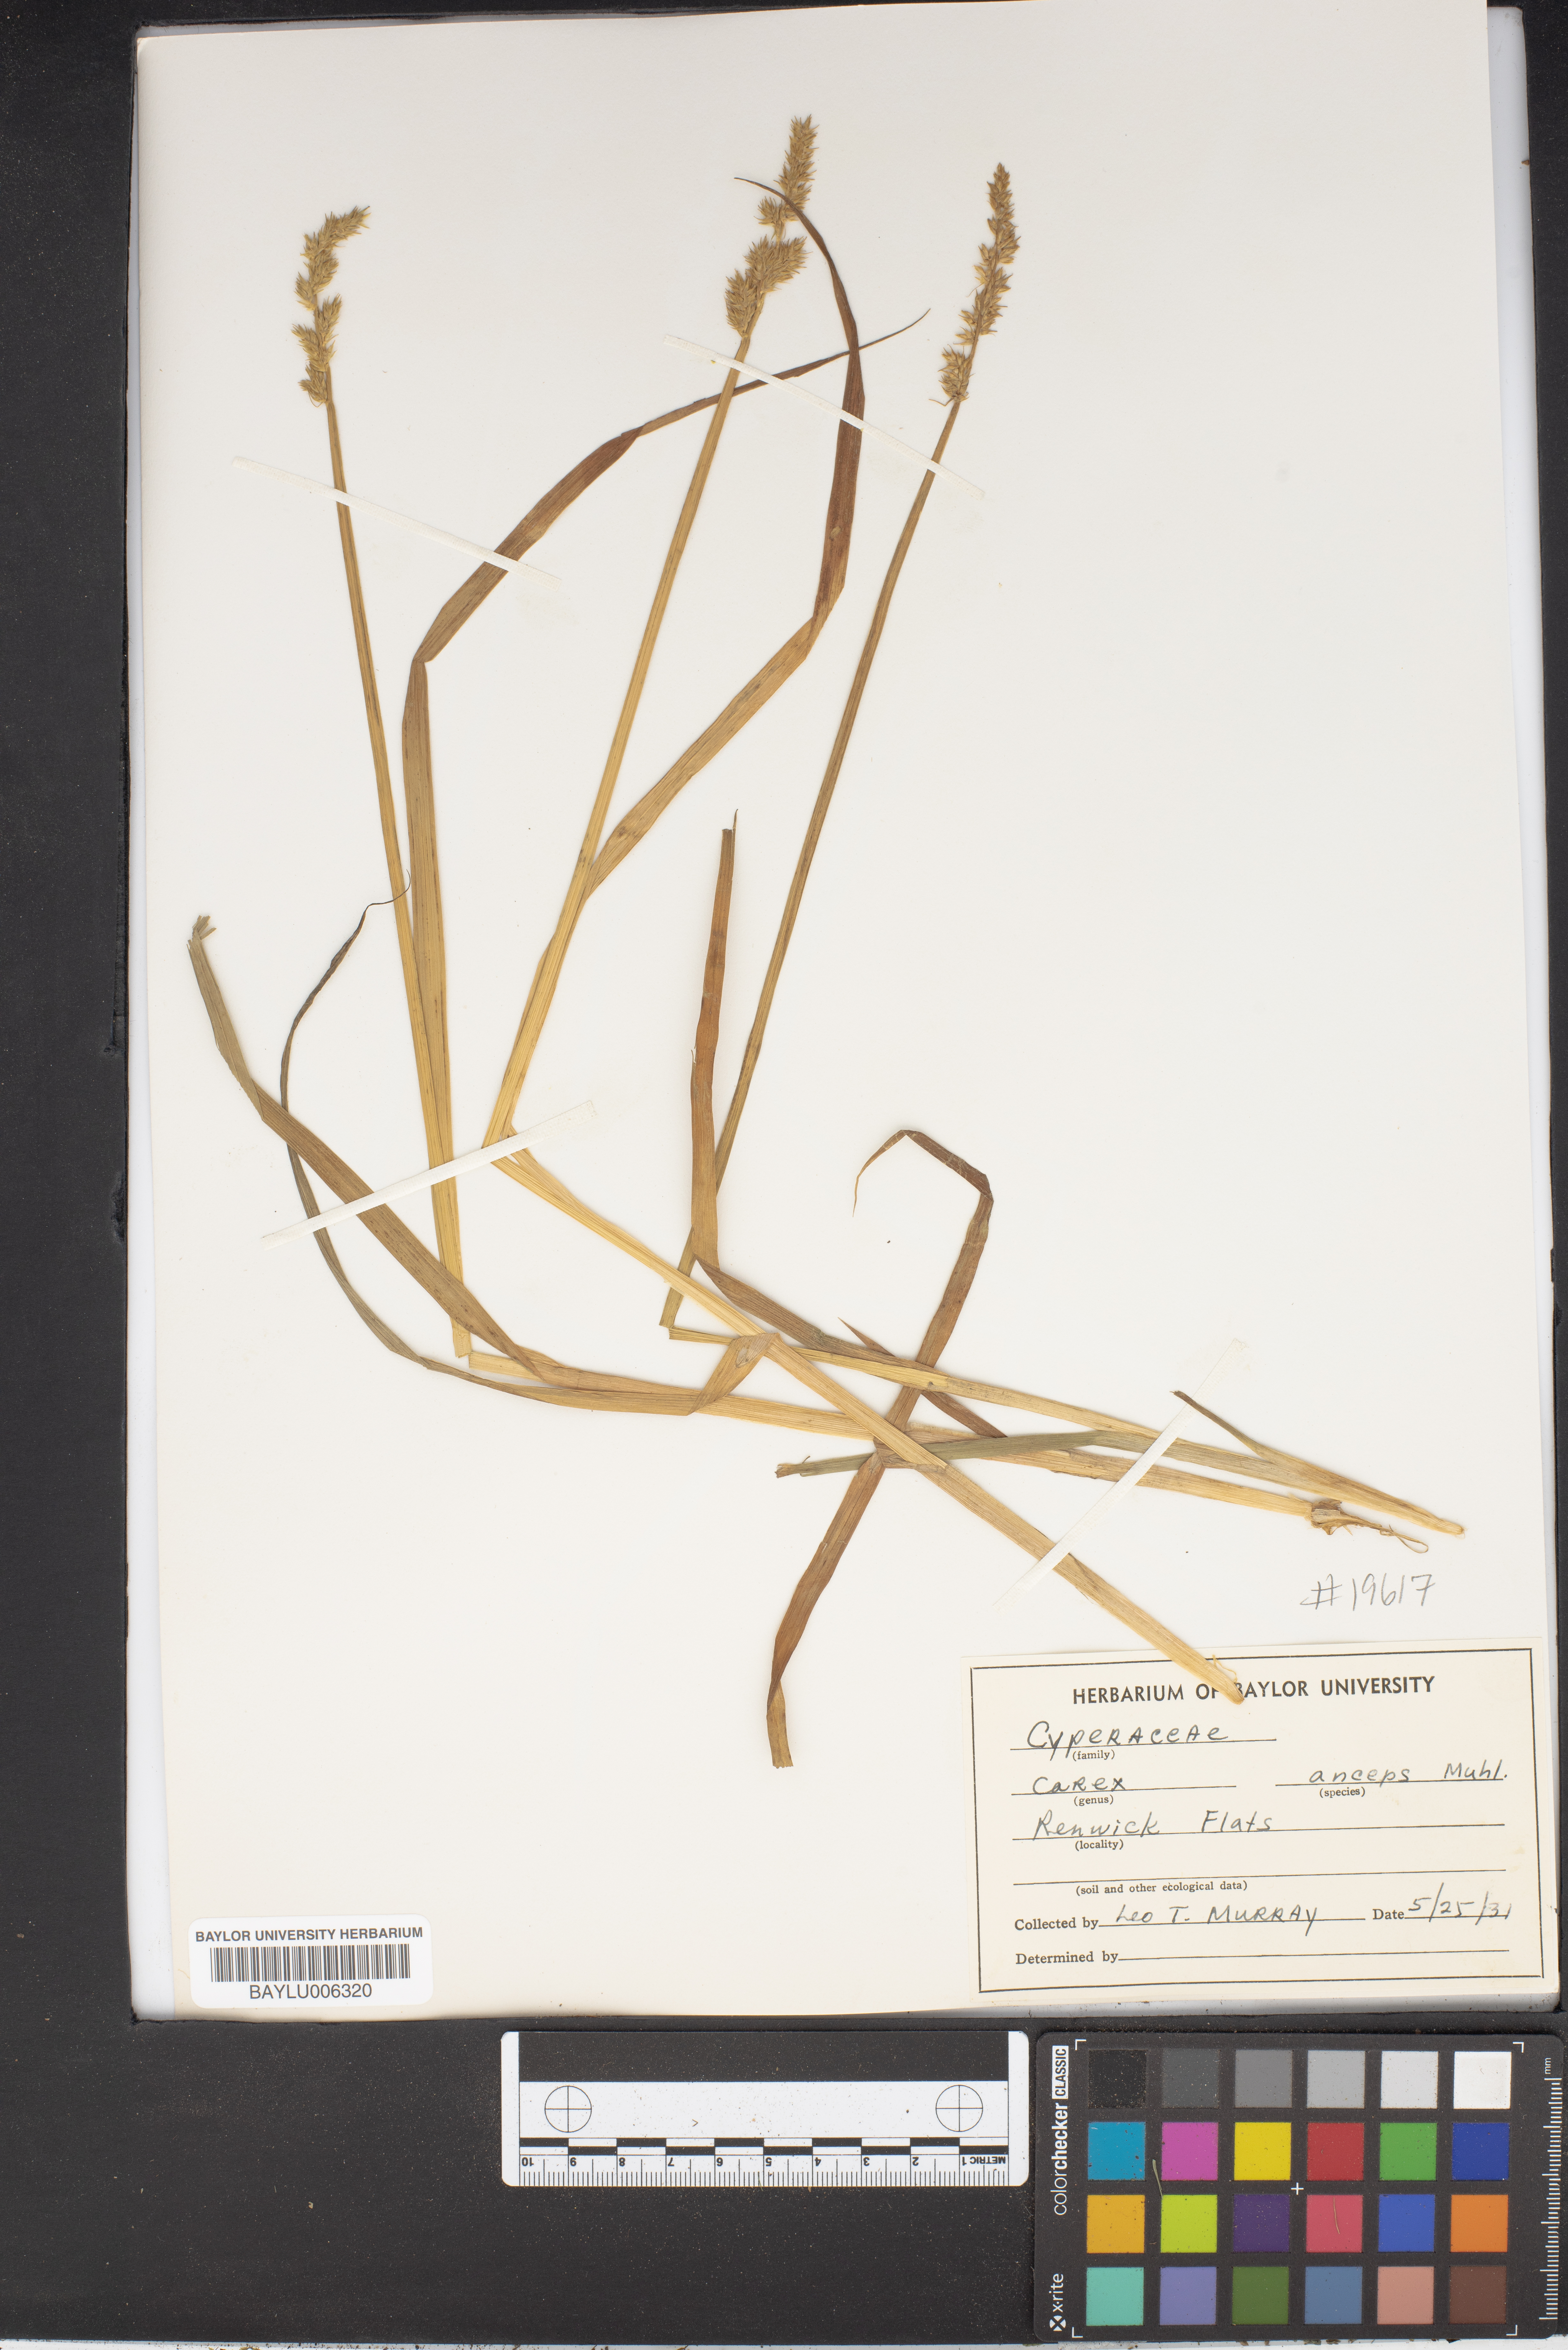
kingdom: Plantae
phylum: Tracheophyta
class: Liliopsida
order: Poales
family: Cyperaceae
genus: Carex
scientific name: Carex laxiflora
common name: Beech wood sedge
